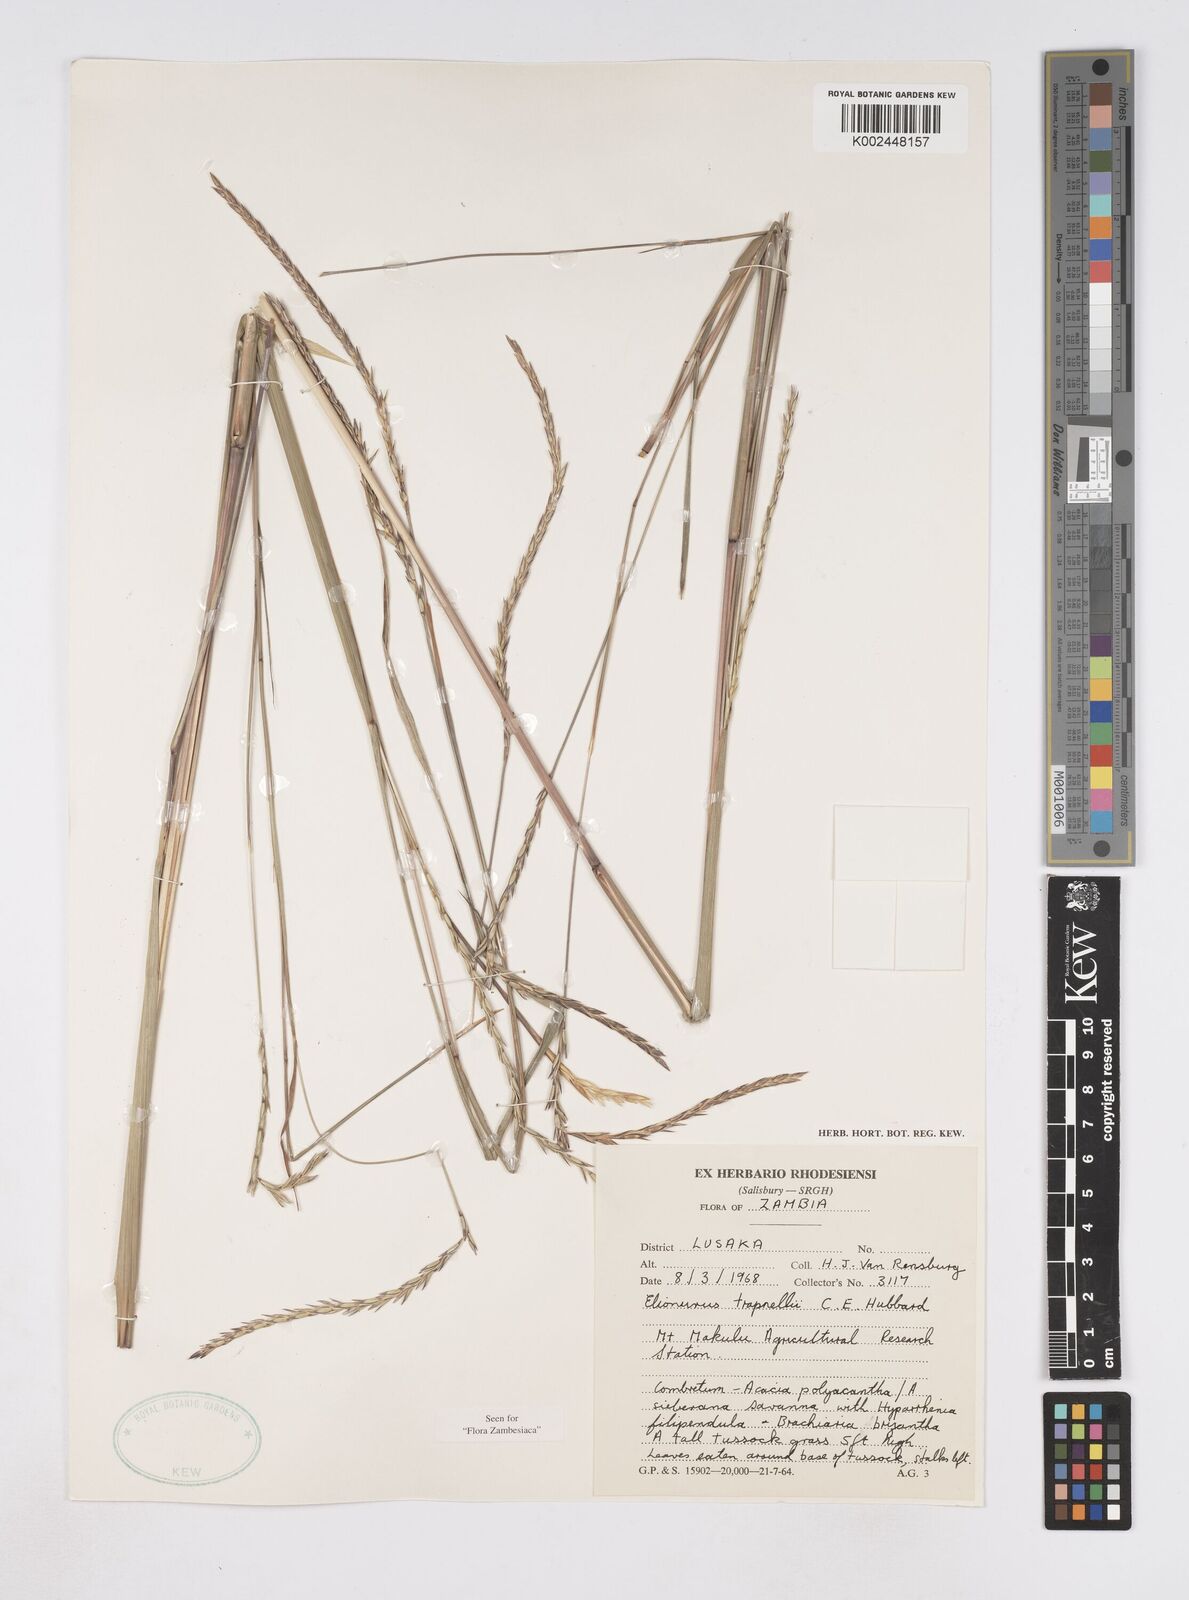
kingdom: Plantae
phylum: Tracheophyta
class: Liliopsida
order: Poales
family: Poaceae
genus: Elionurus
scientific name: Elionurus tripsacoides
